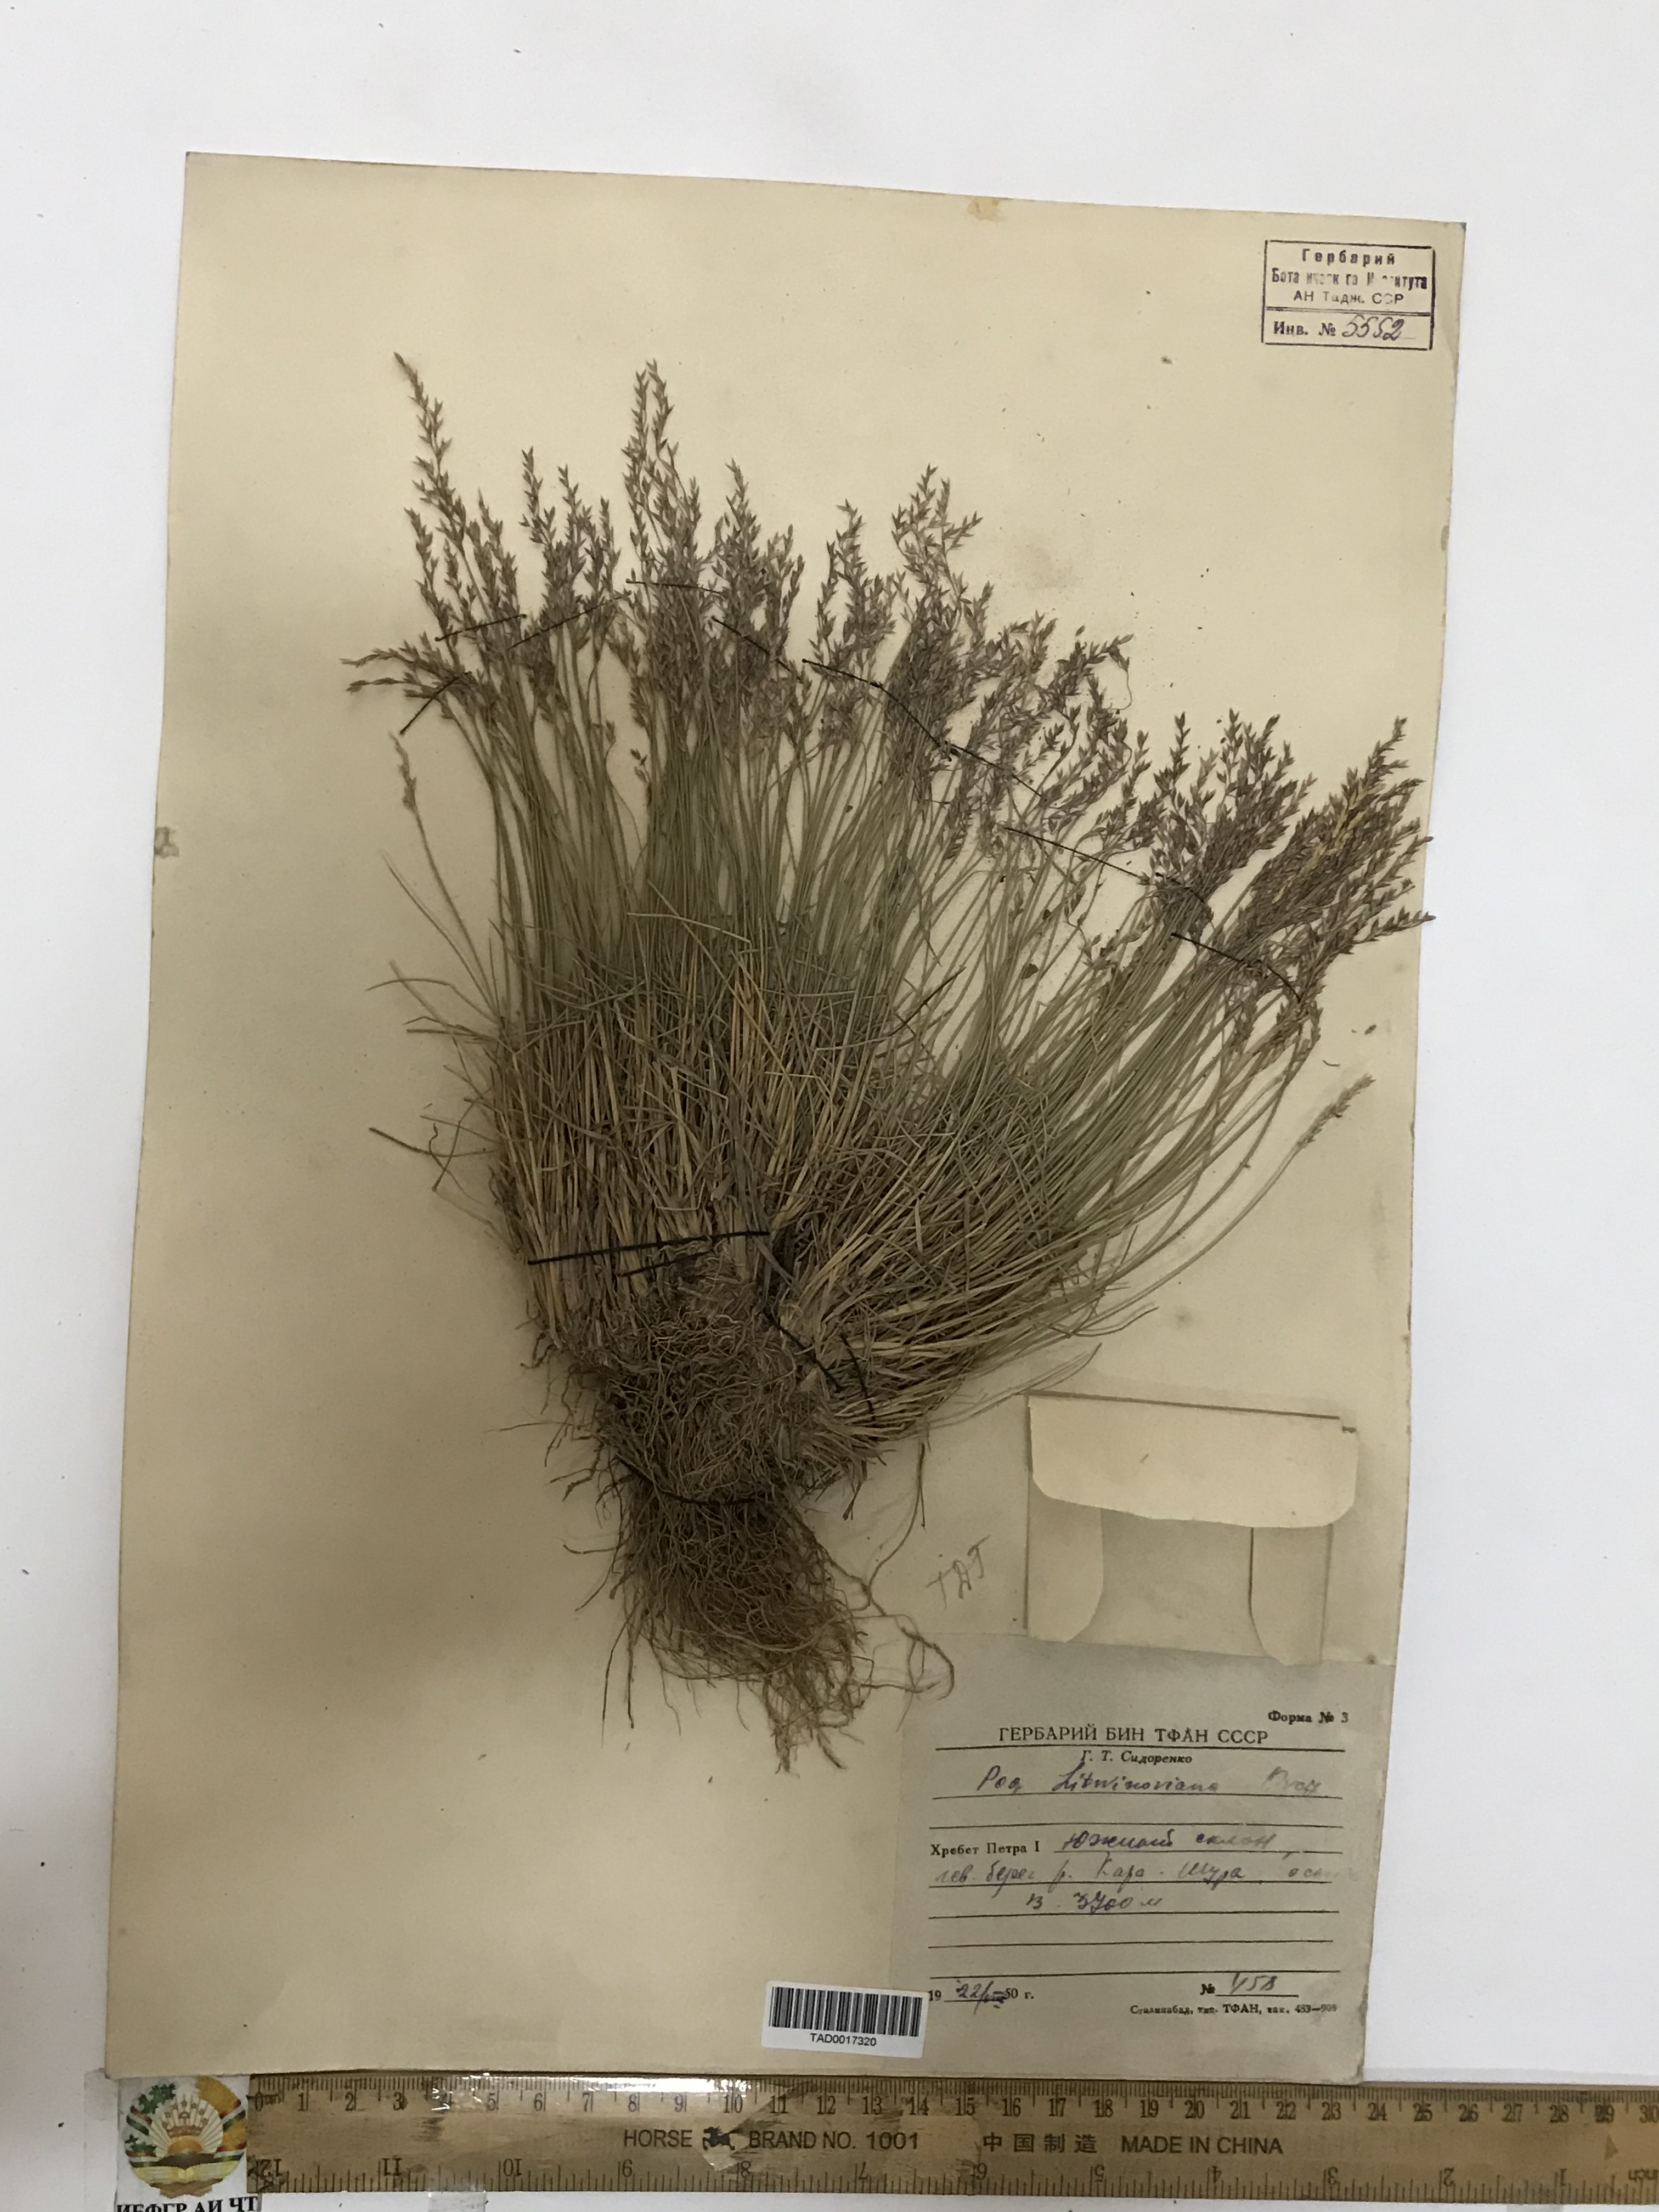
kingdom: Plantae
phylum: Tracheophyta
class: Liliopsida
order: Poales
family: Poaceae
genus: Poa
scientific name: Poa glauca
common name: Glaucous bluegrass
